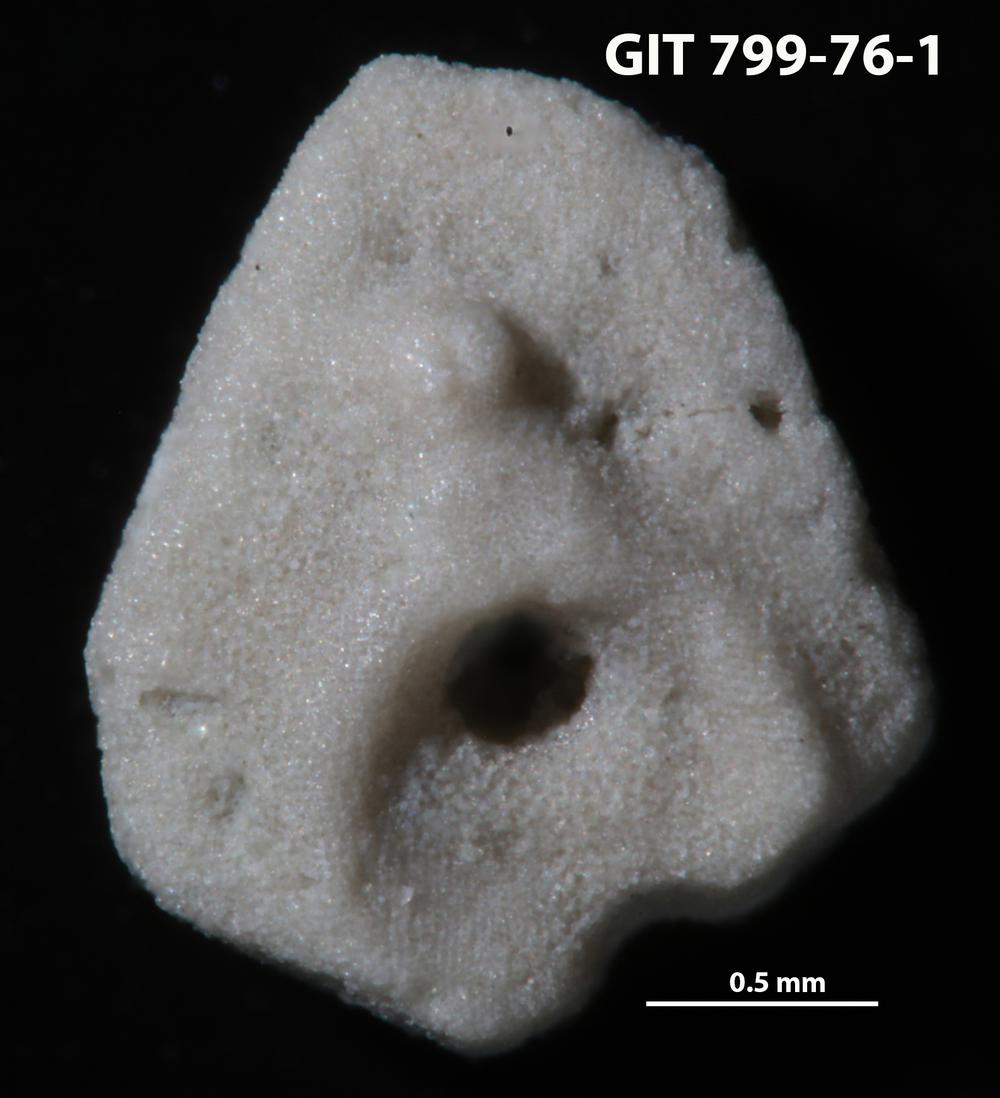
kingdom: Animalia
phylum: Echinodermata
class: Echinoidea
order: Bothriocidaroida
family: Bothriocidaridae
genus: Neobothriocidaris
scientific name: Neobothriocidaris
